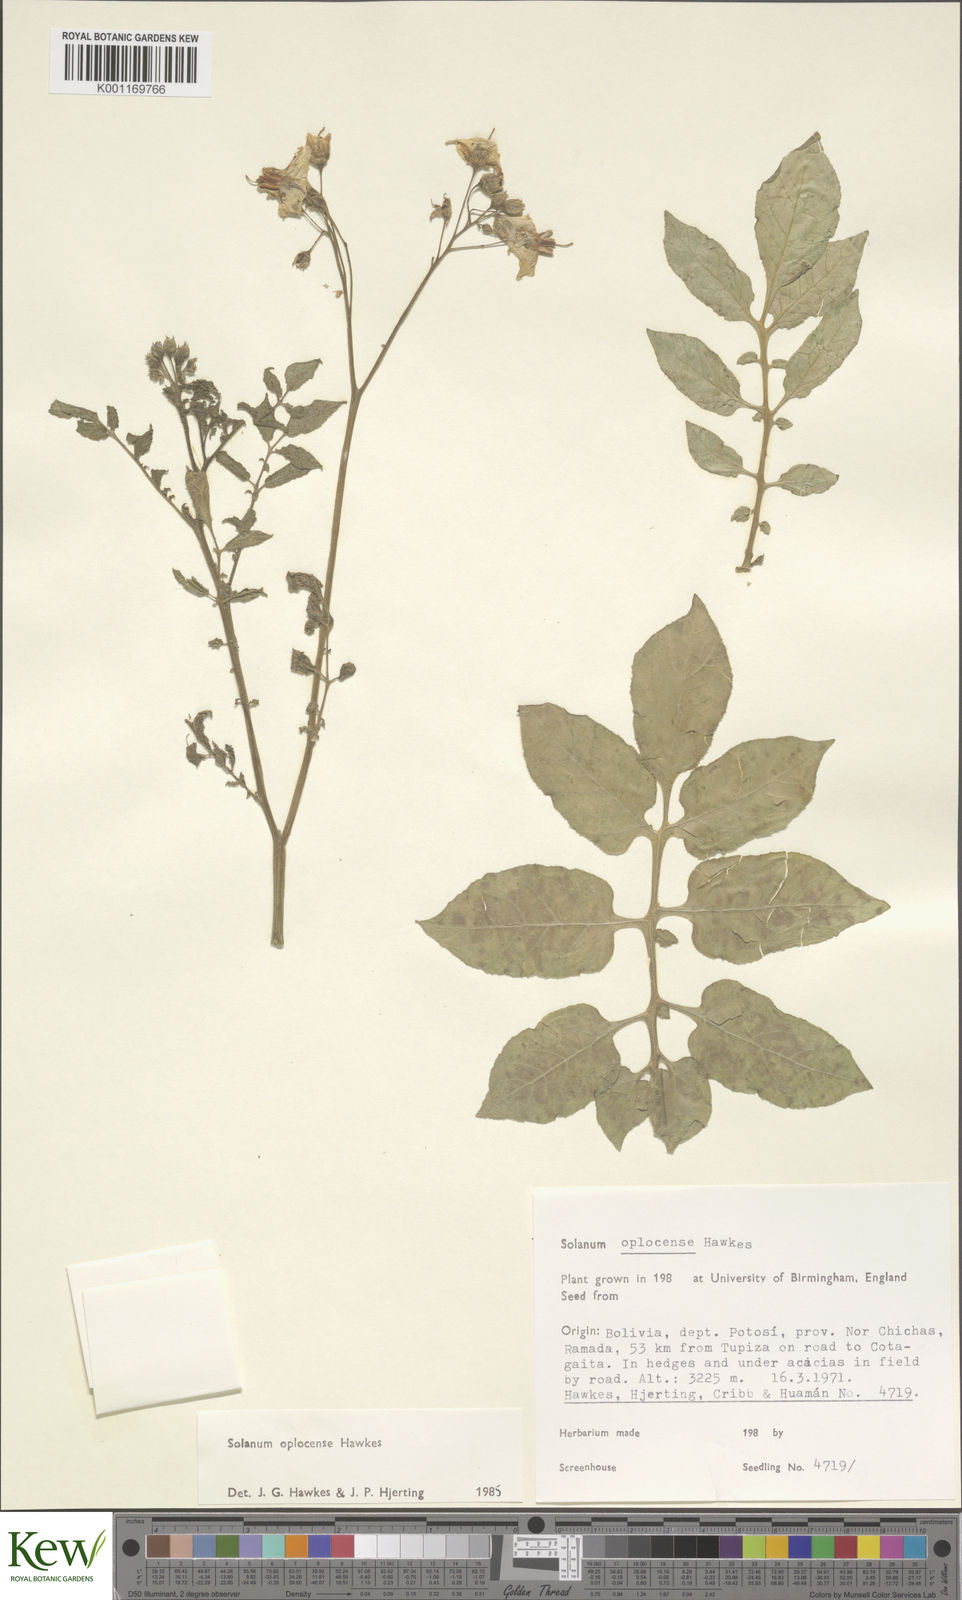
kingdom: Plantae
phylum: Tracheophyta
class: Magnoliopsida
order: Solanales
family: Solanaceae
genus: Solanum
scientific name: Solanum brevicaule
